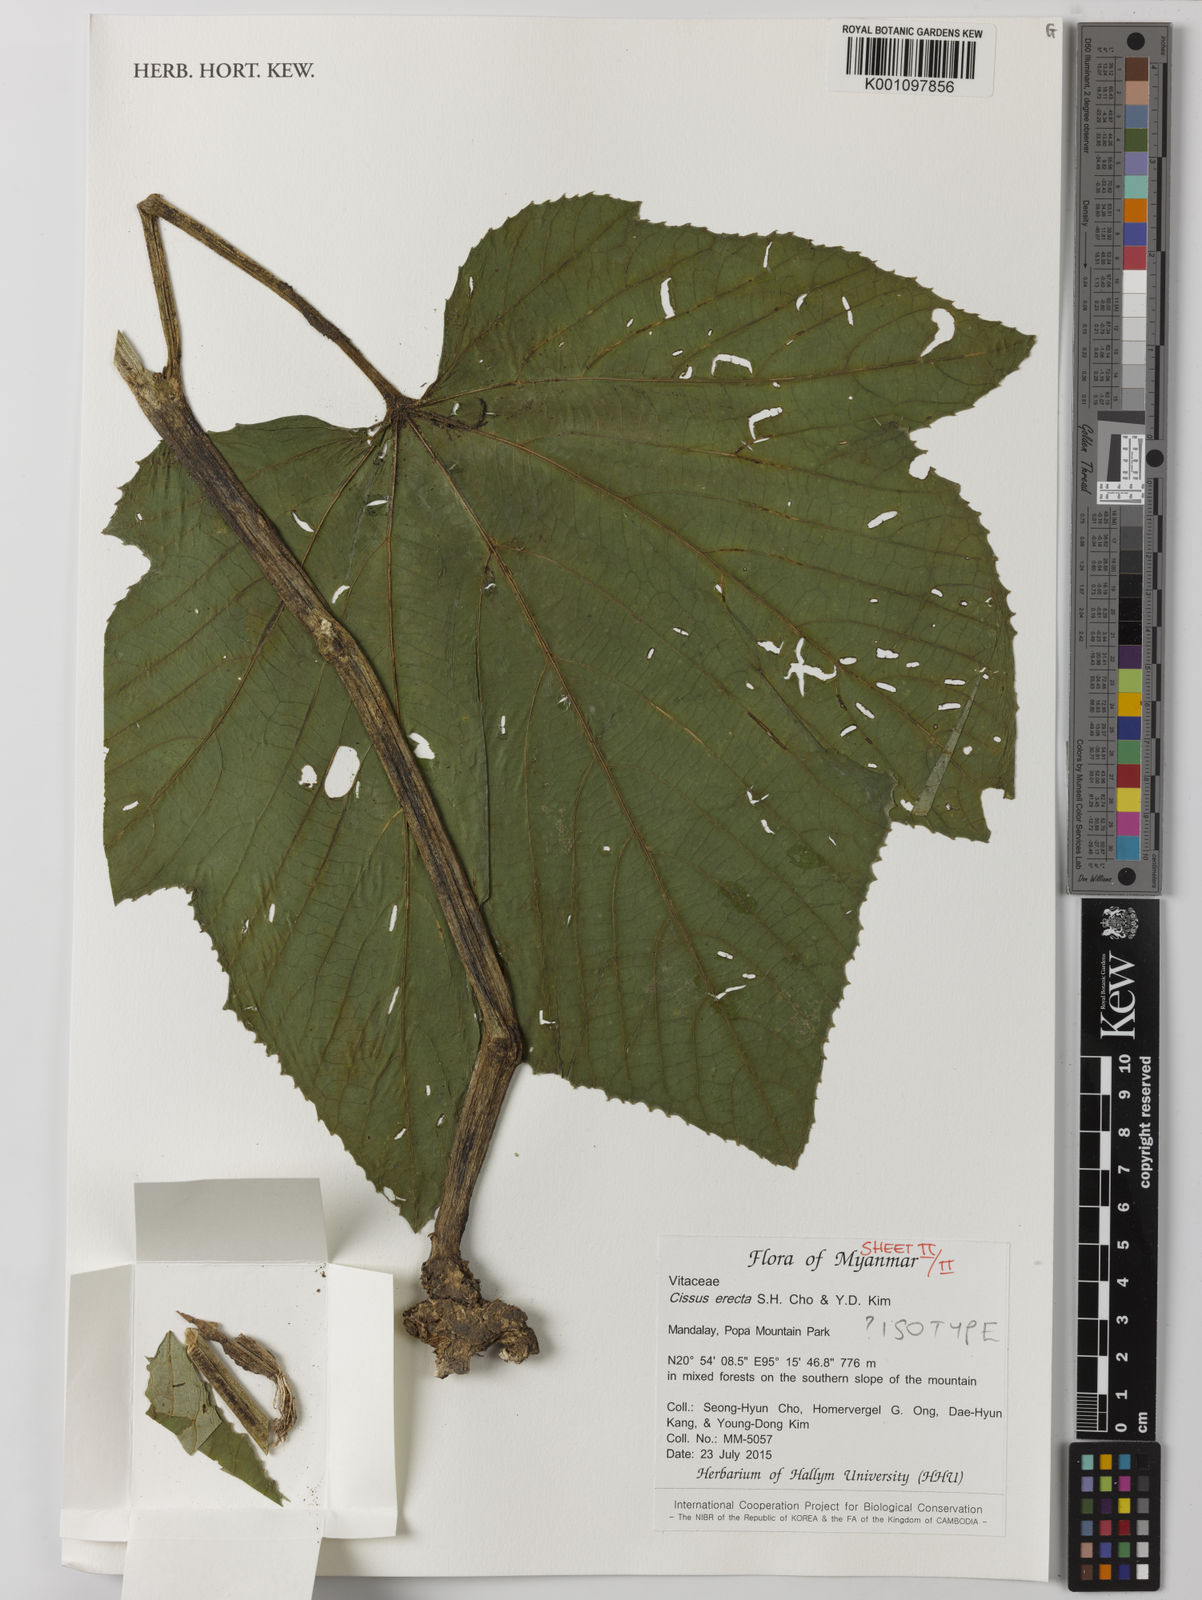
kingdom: Plantae
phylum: Tracheophyta
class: Magnoliopsida
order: Vitales
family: Vitaceae
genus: Cissus
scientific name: Cissus erecta
